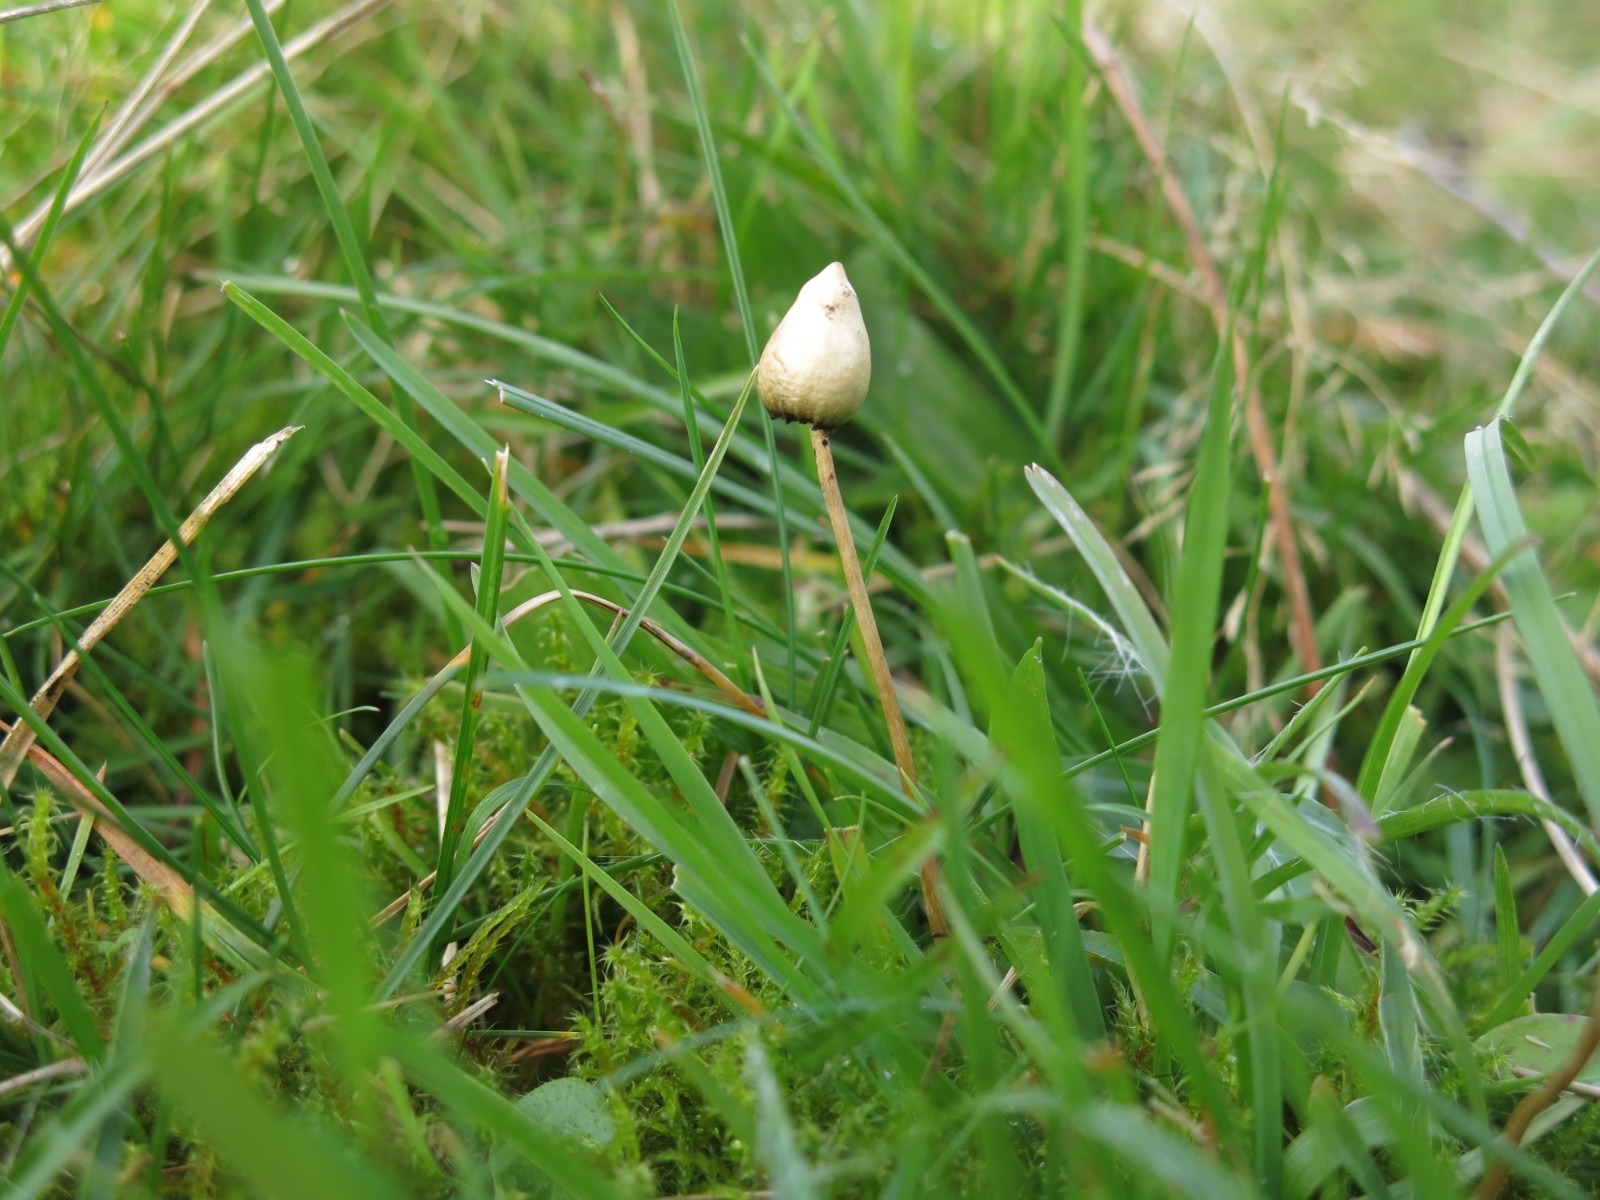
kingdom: Fungi
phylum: Basidiomycota
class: Agaricomycetes
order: Agaricales
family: Hymenogastraceae
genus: Psilocybe
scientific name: Psilocybe semilanceata
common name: spids nøgenhat
